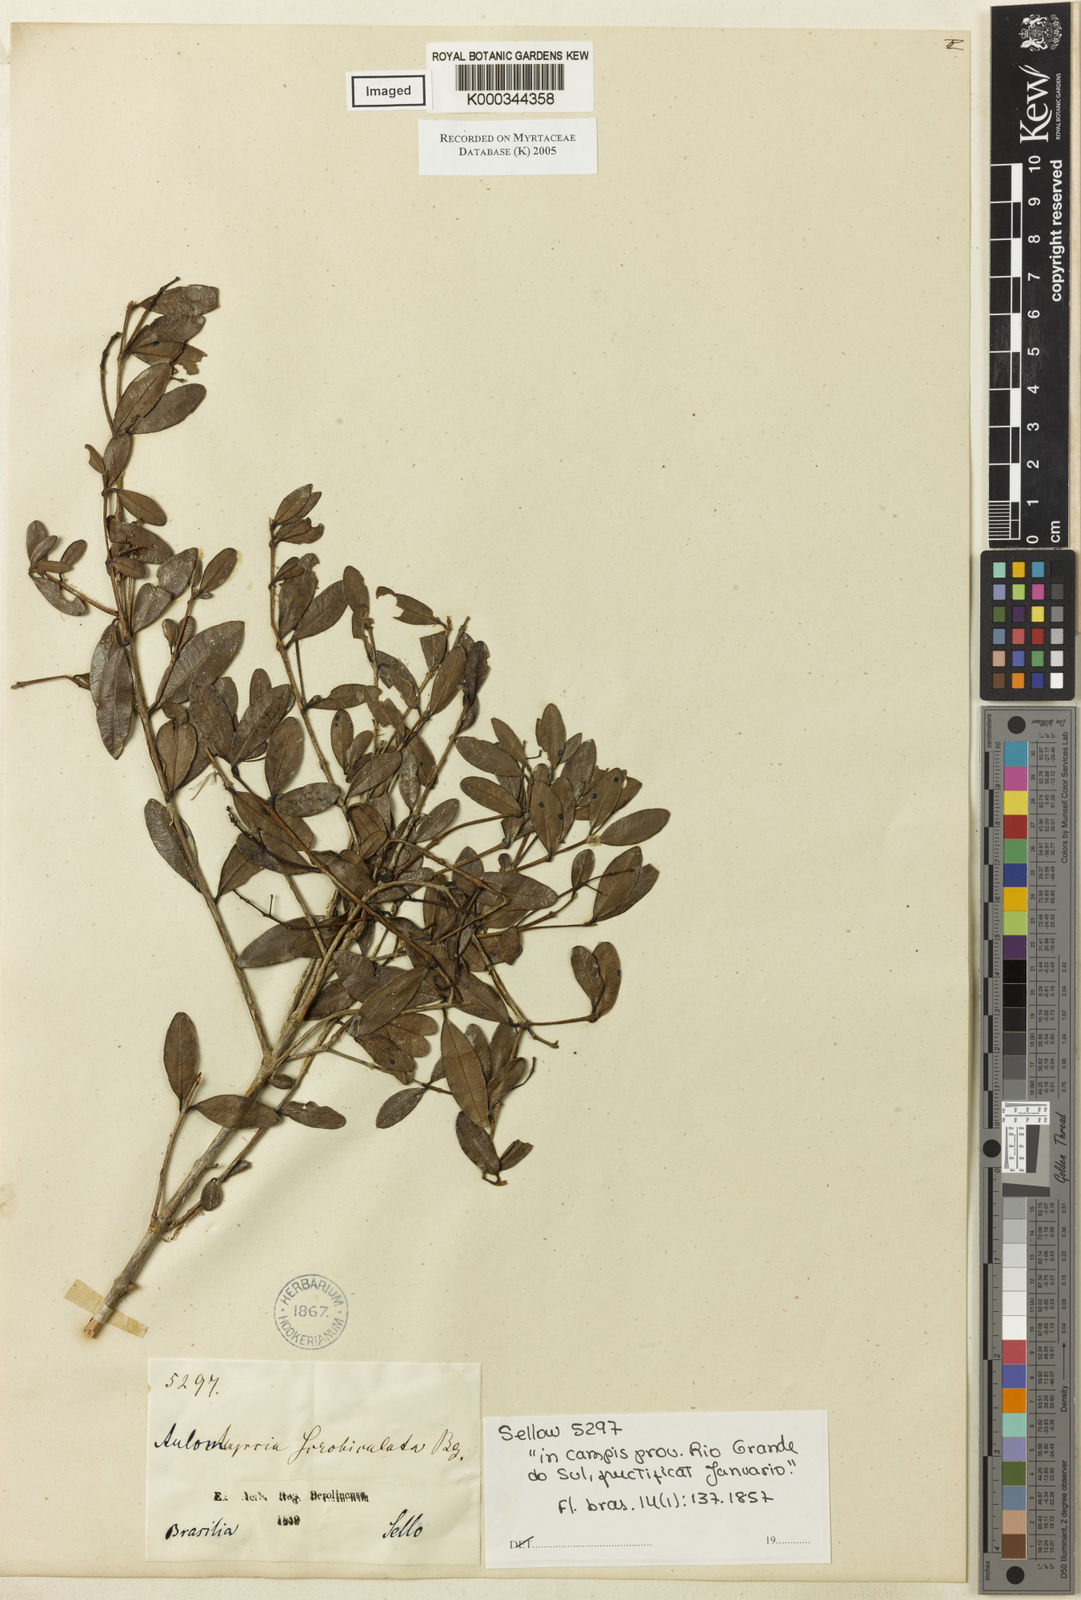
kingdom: Plantae
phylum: Tracheophyta
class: Magnoliopsida
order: Myrtales
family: Myrtaceae
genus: Myrcia
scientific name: Myrcia guianensis
